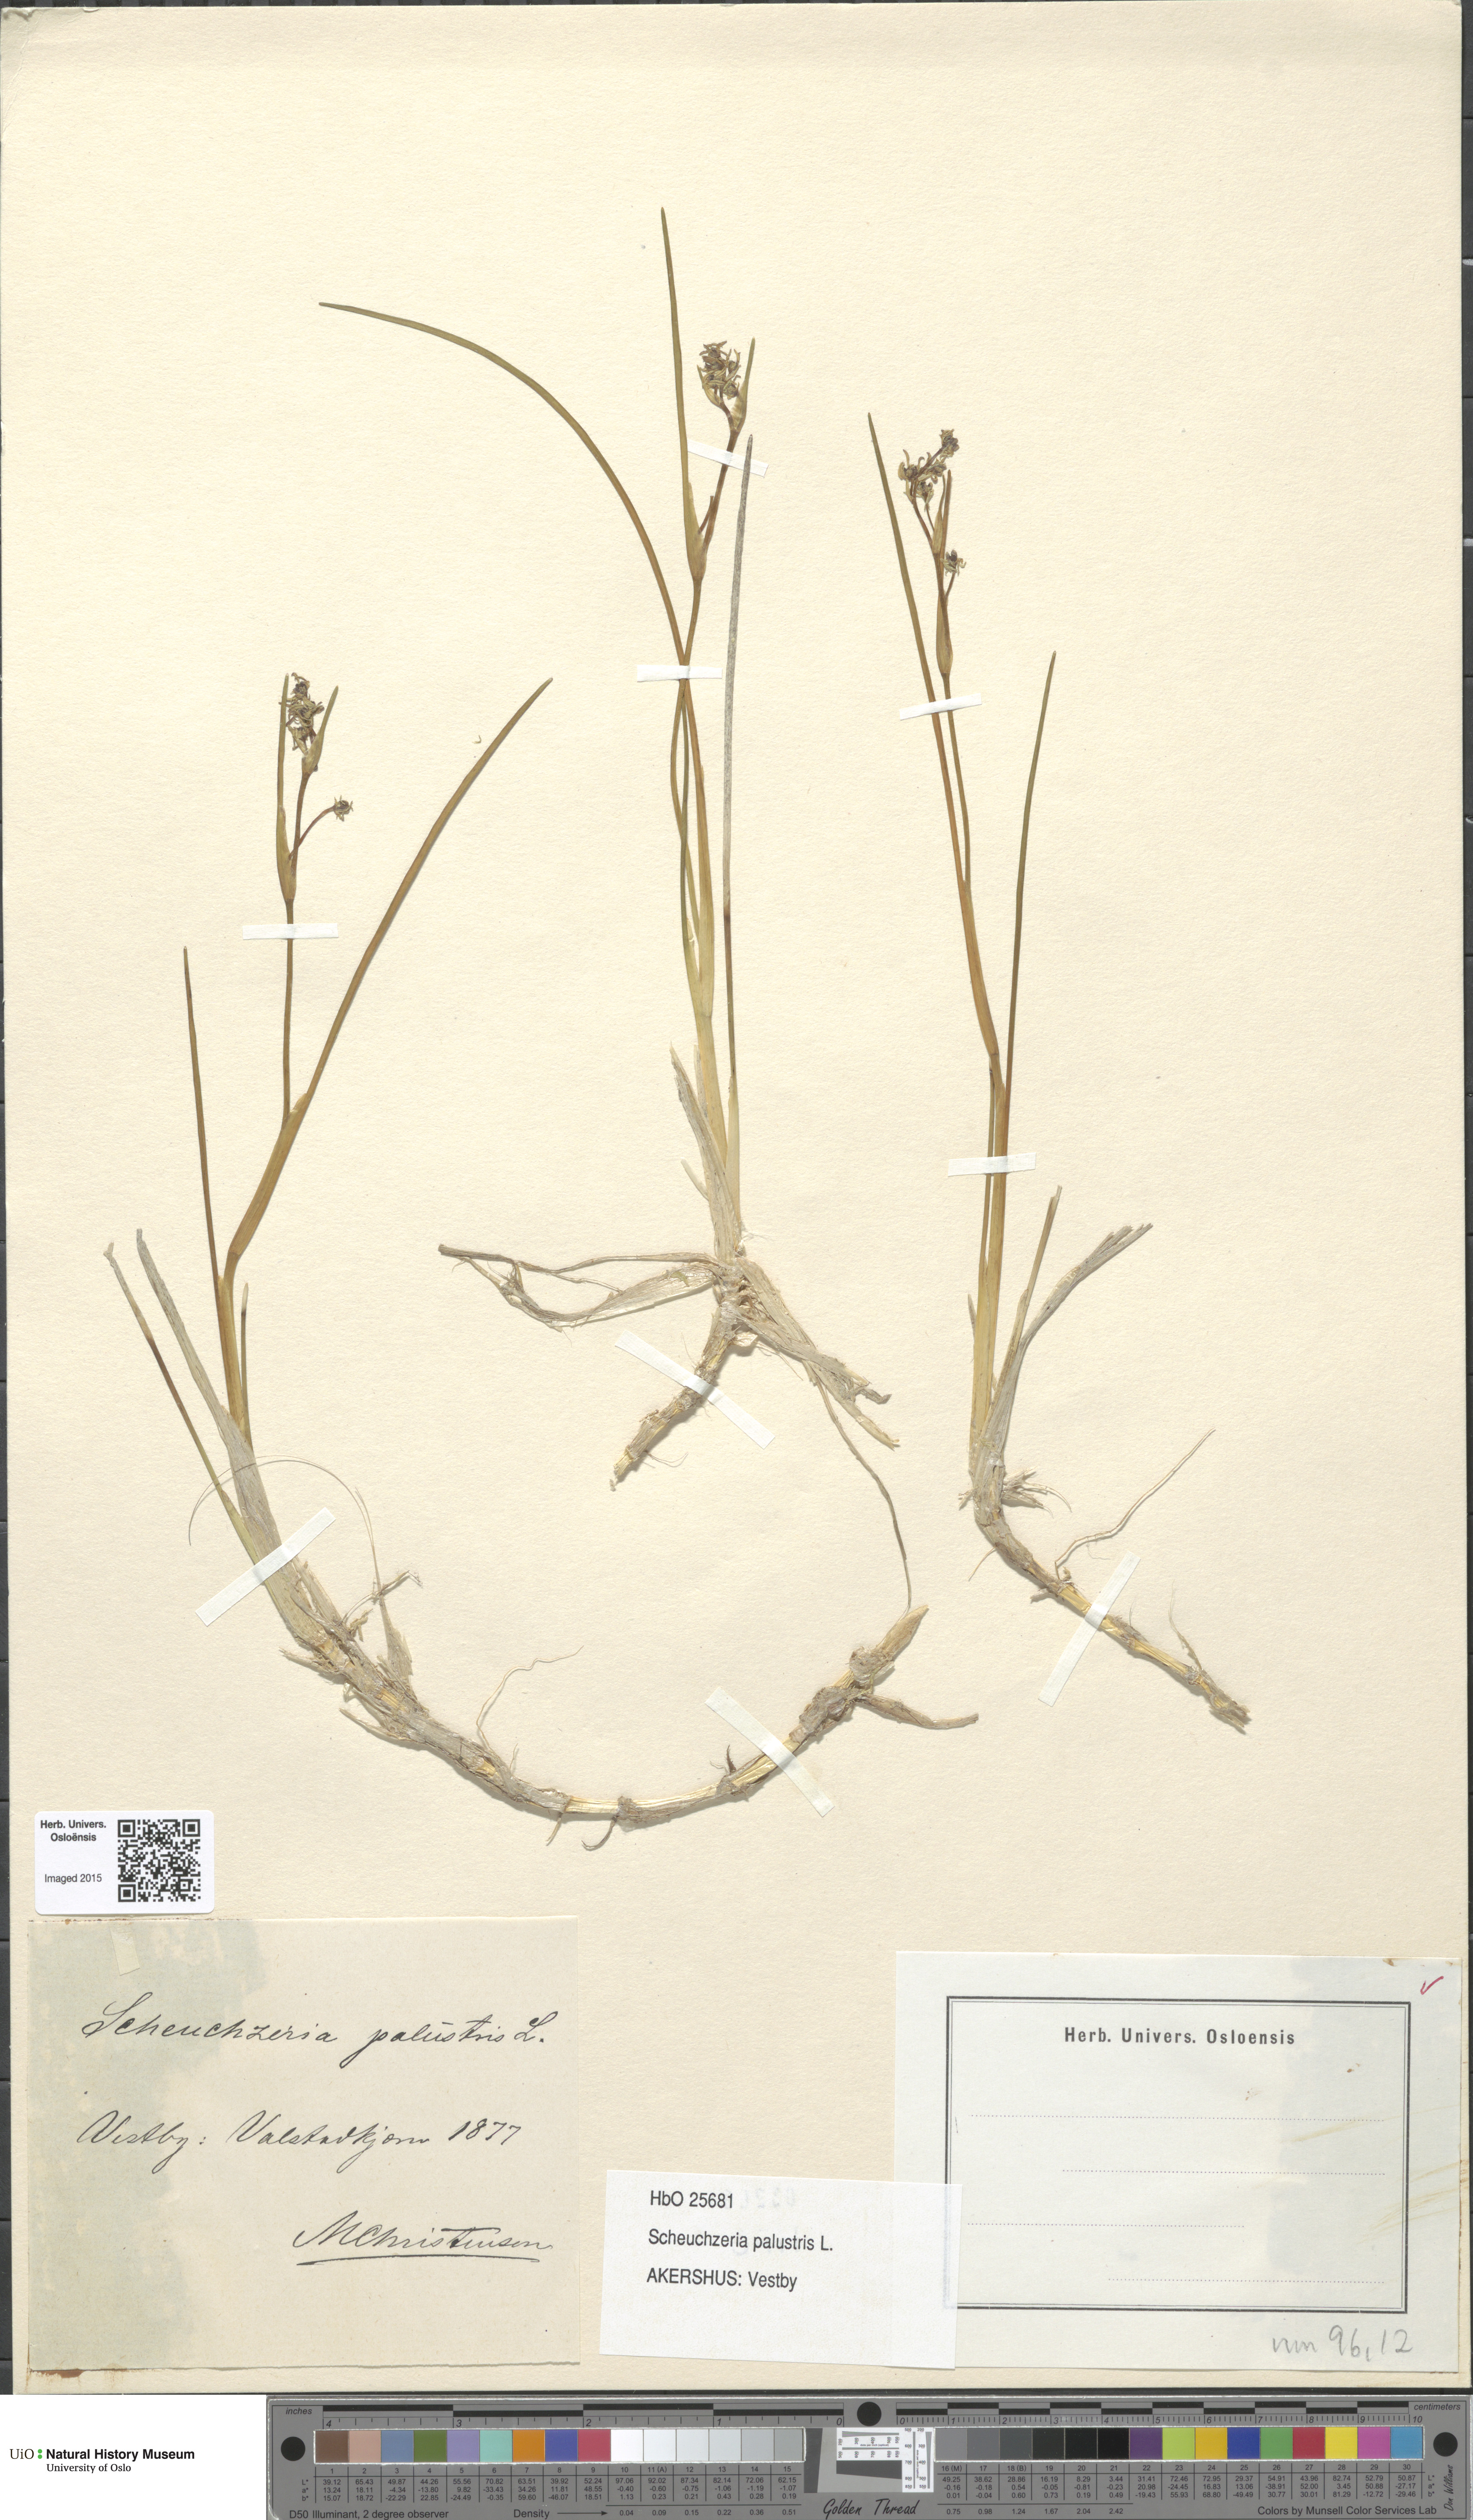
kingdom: Plantae
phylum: Tracheophyta
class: Liliopsida
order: Alismatales
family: Scheuchzeriaceae
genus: Scheuchzeria
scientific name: Scheuchzeria palustris
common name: Rannoch-rush
